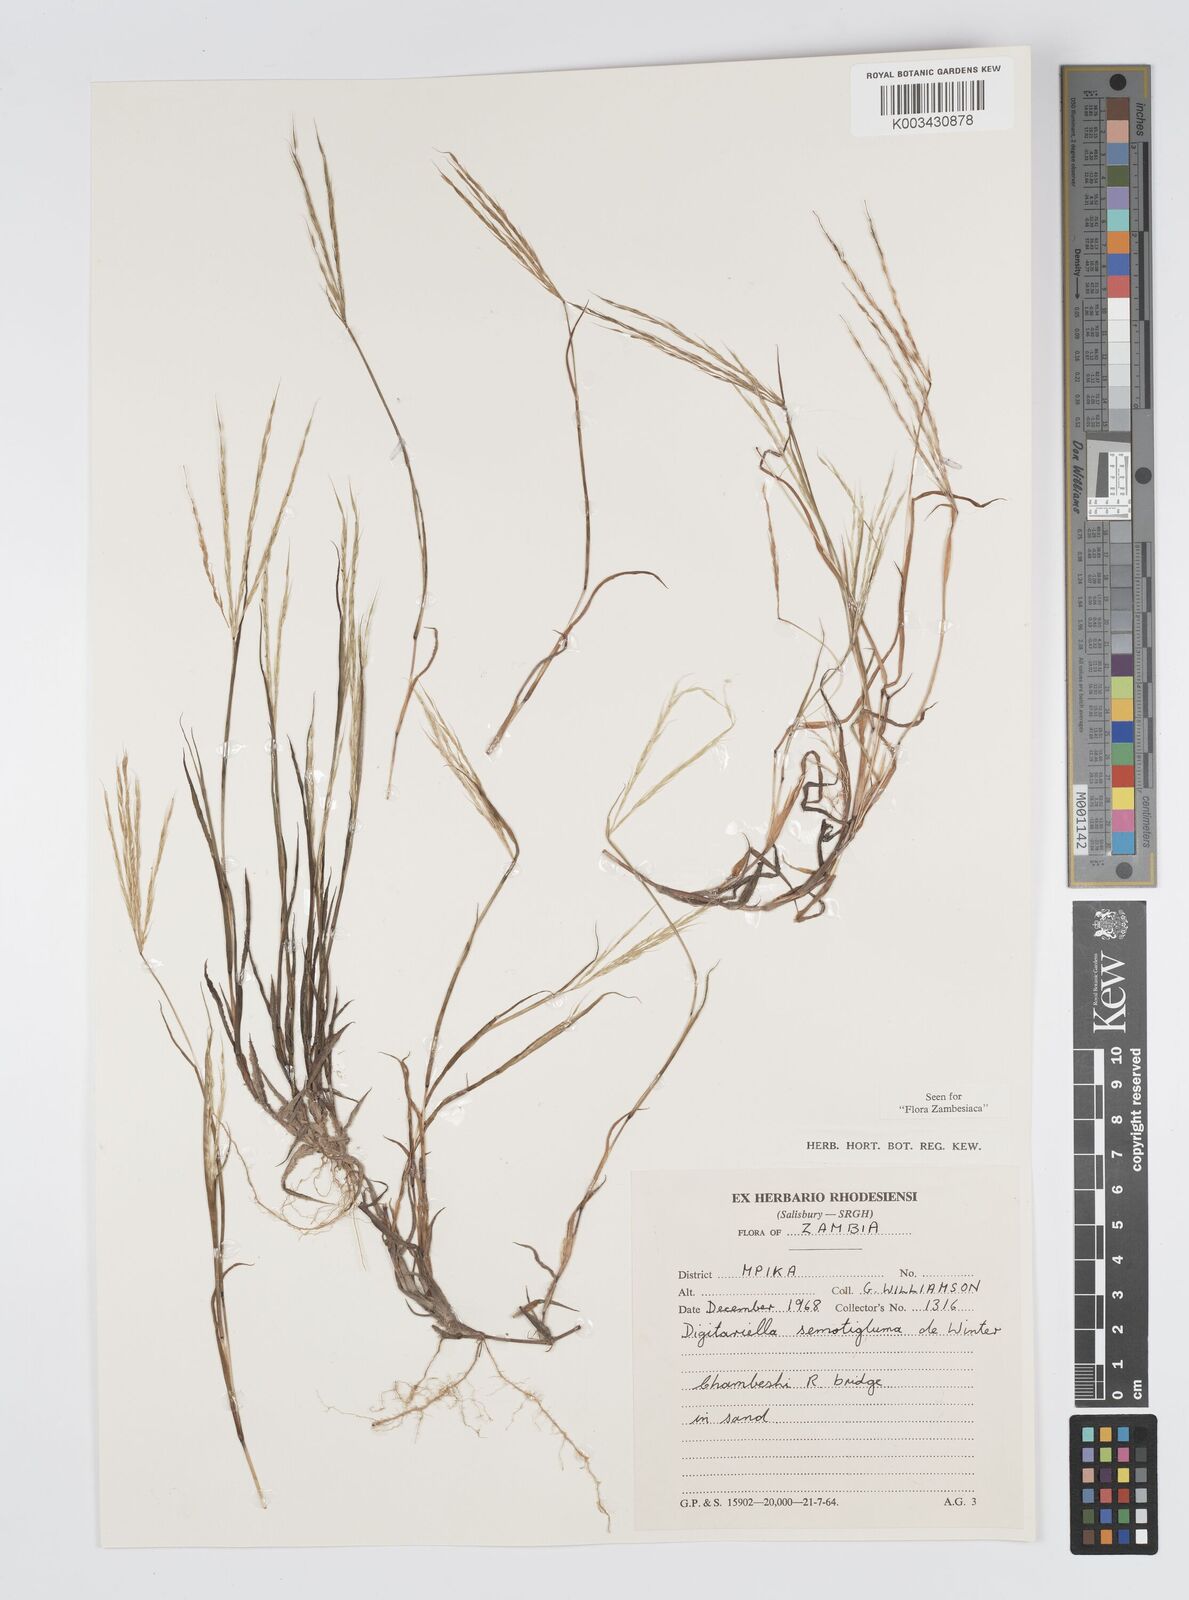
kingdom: Plantae
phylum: Tracheophyta
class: Liliopsida
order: Poales
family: Poaceae
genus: Digitaria
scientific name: Digitaria remotigluma
